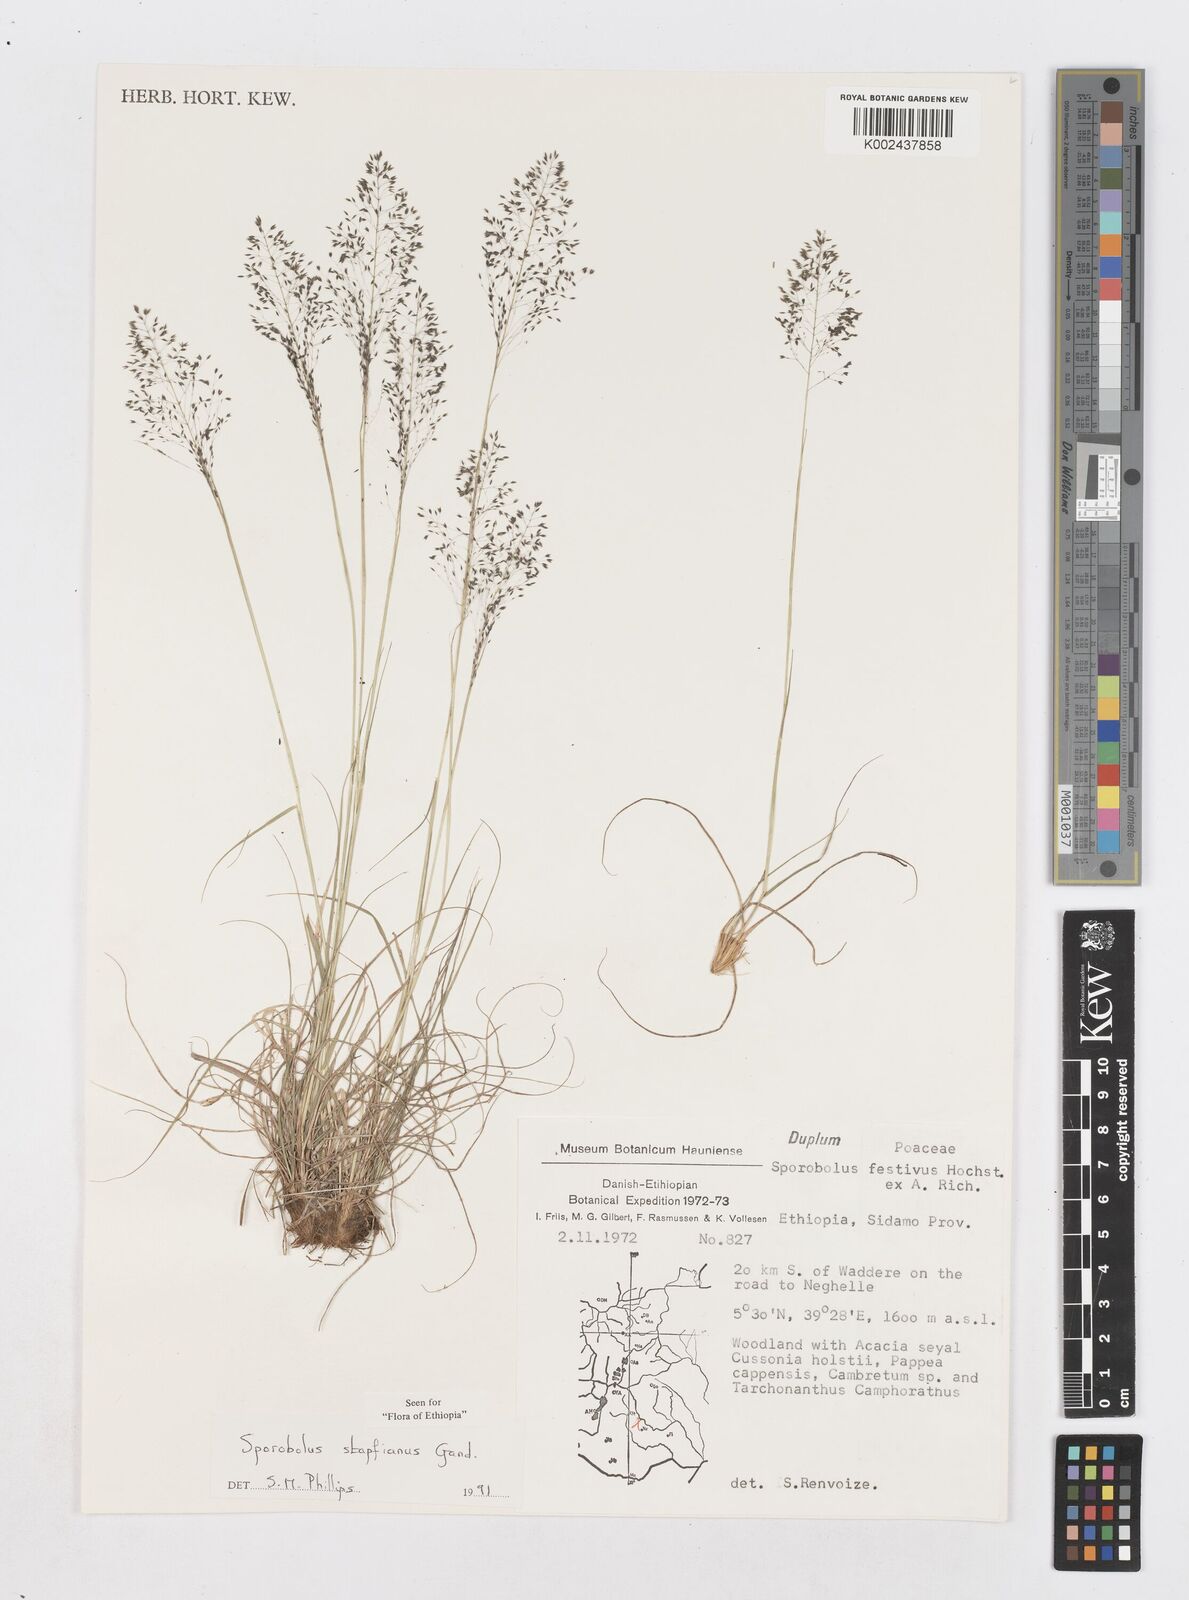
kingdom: Plantae
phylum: Tracheophyta
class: Liliopsida
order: Poales
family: Poaceae
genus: Sporobolus
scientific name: Sporobolus stapfianus
